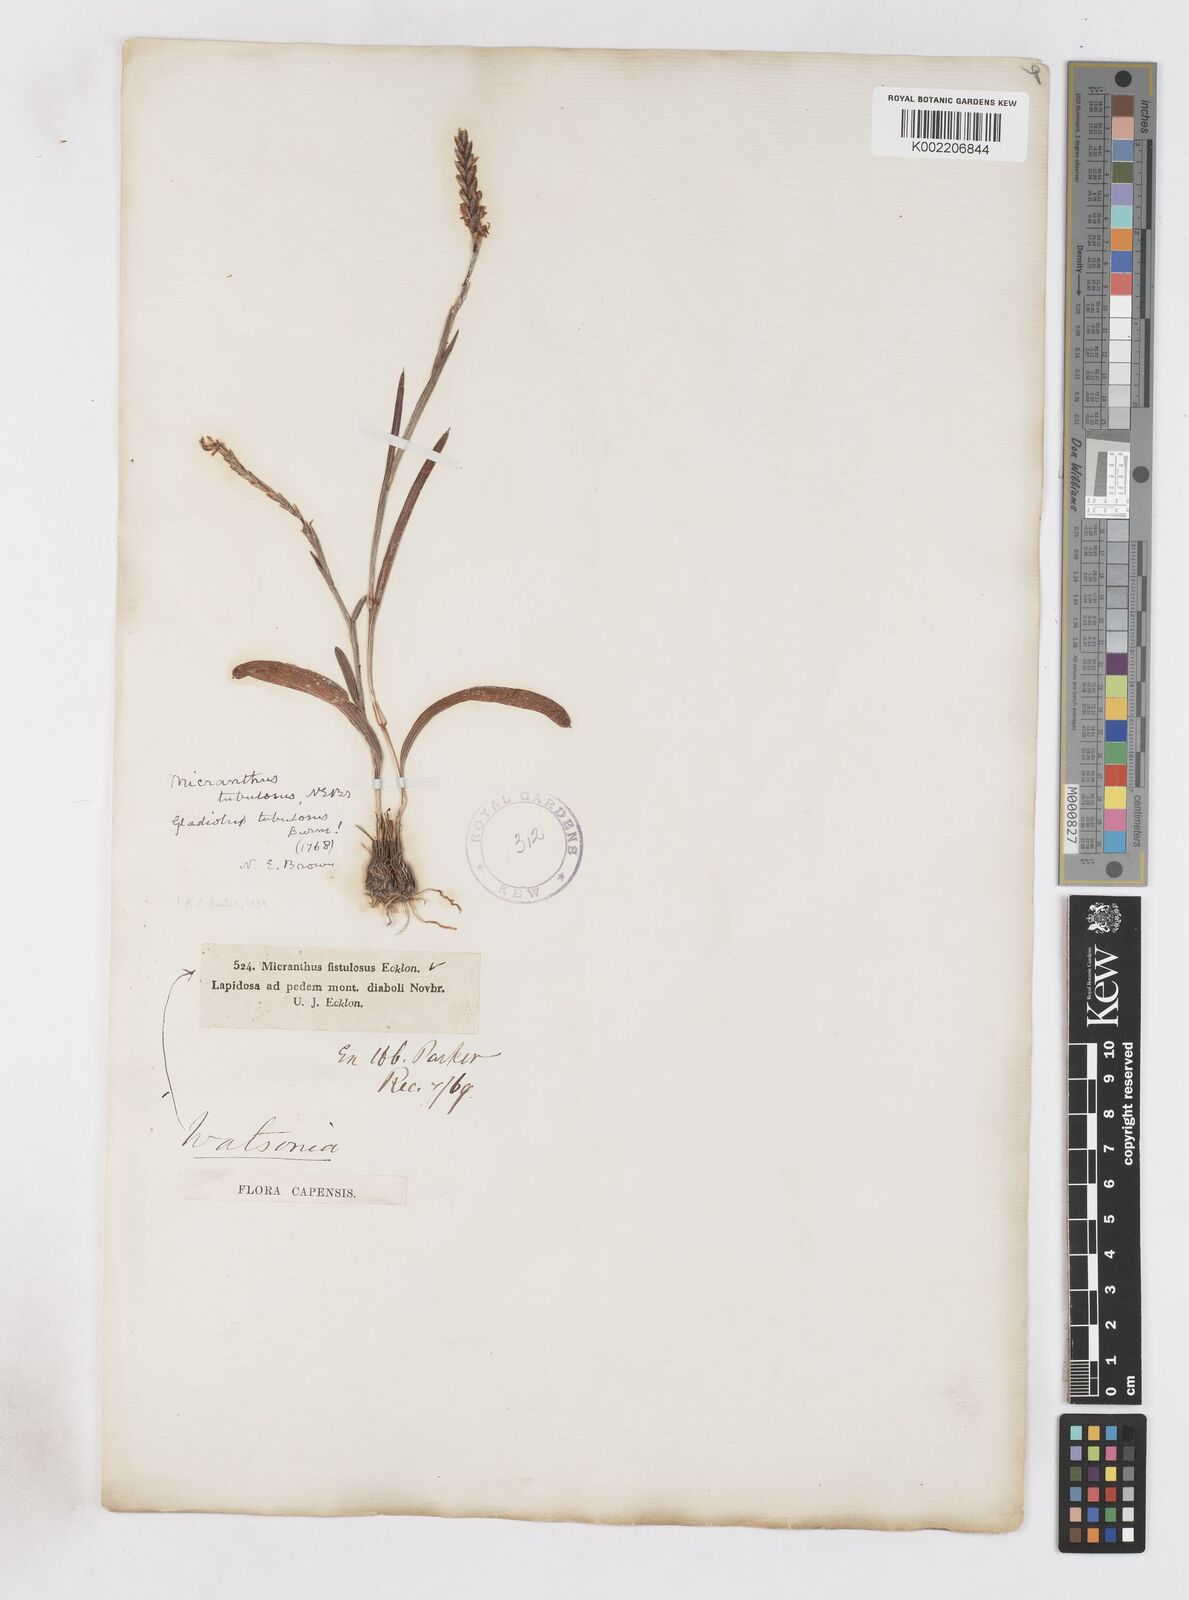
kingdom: Plantae
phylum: Tracheophyta
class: Liliopsida
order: Asparagales
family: Iridaceae
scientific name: Iridaceae
